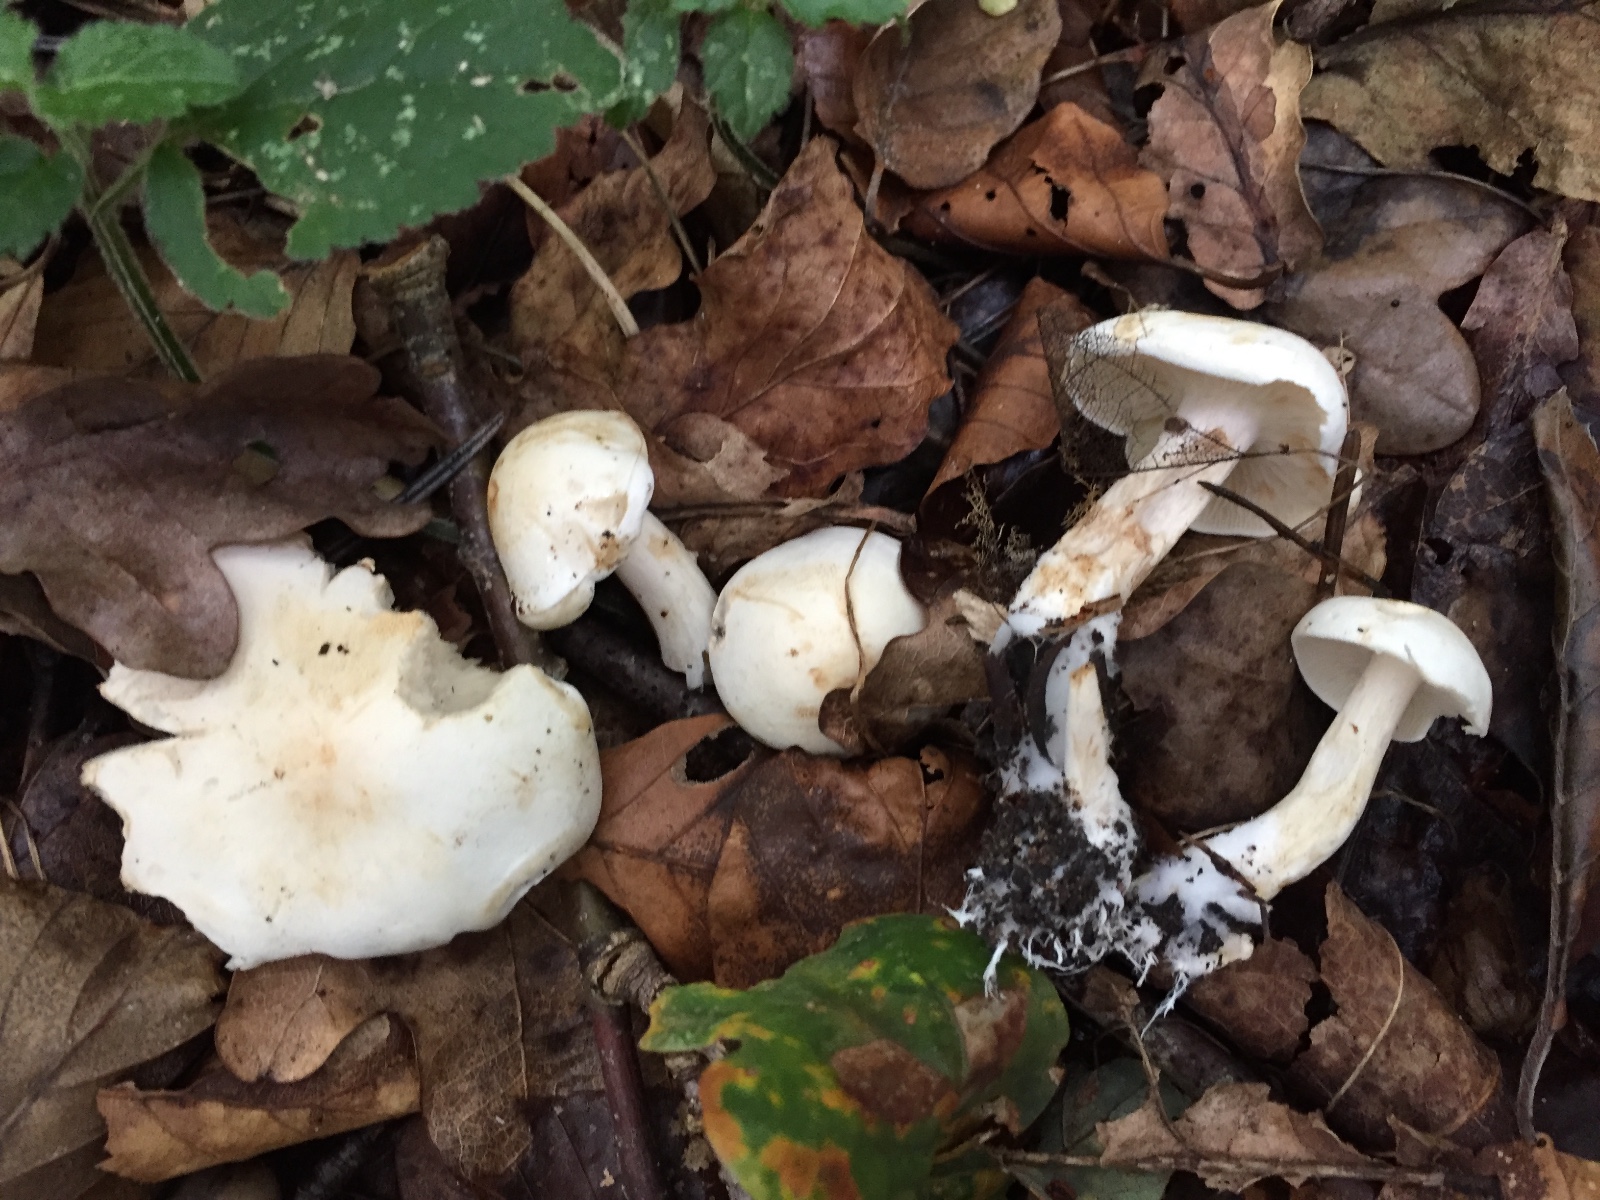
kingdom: Fungi
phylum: Basidiomycota
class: Agaricomycetes
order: Agaricales
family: Tricholomataceae
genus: Tricholoma
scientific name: Tricholoma album
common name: honning-ridderhat
